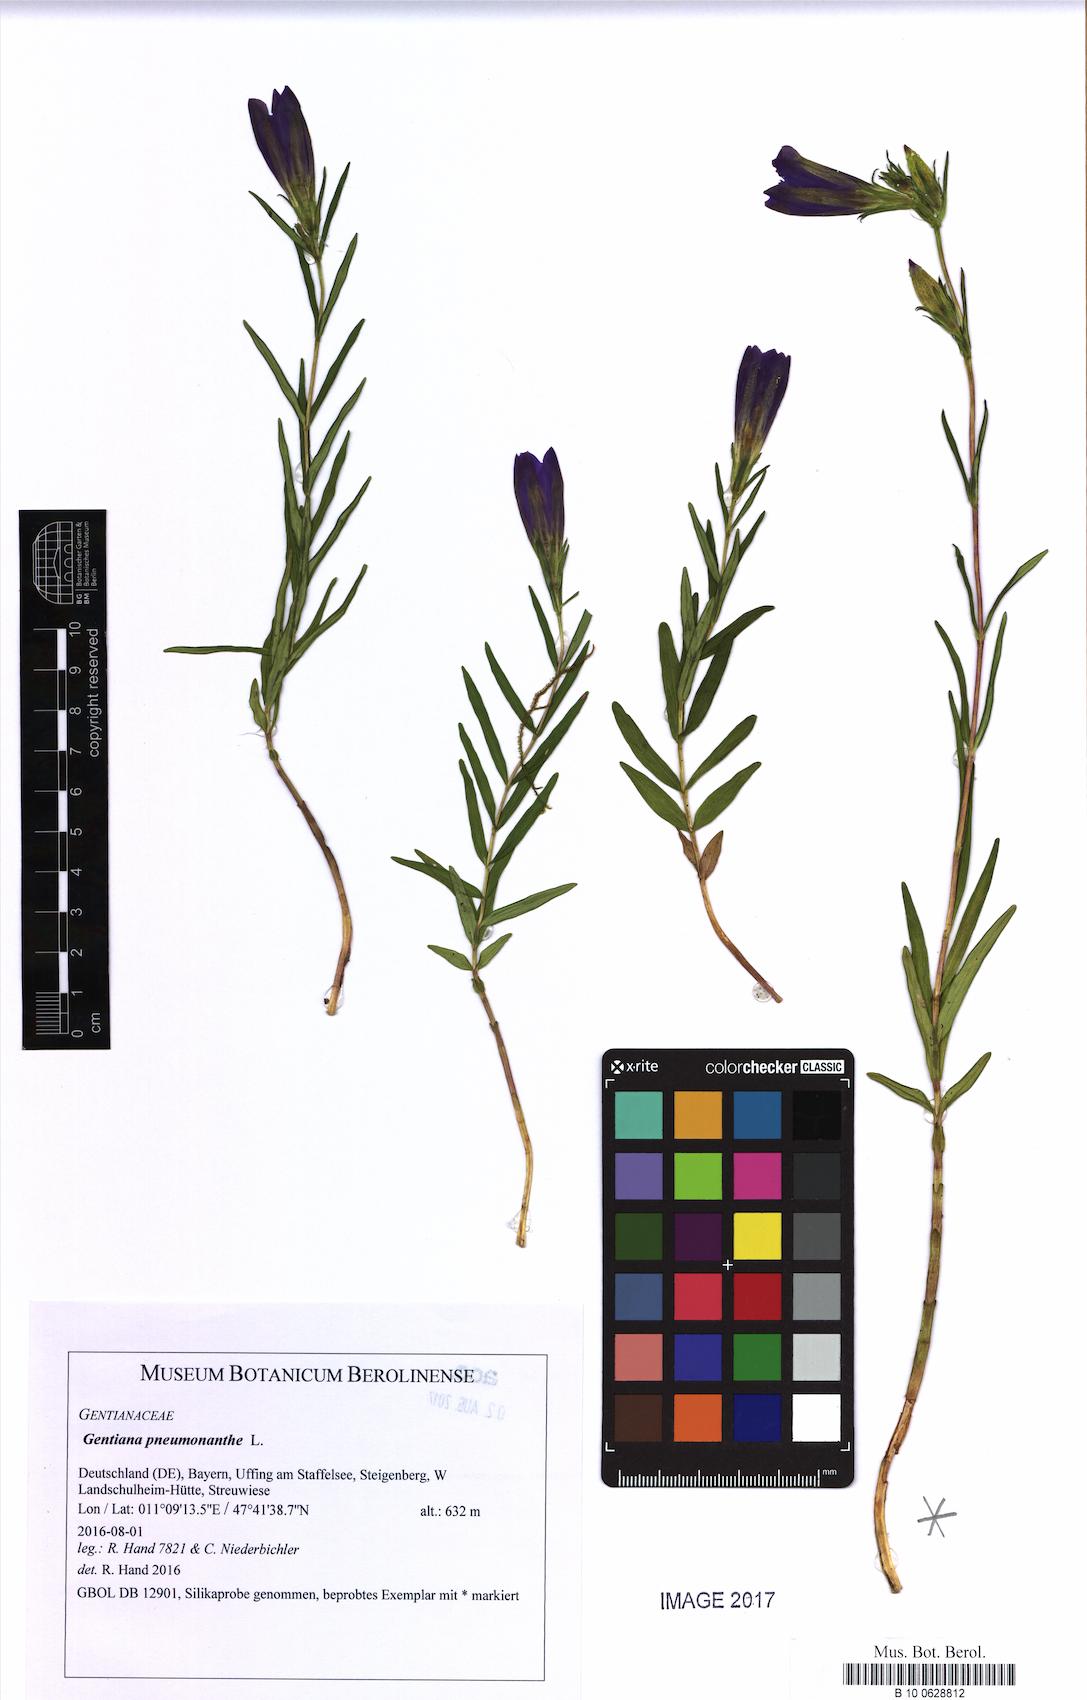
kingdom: Plantae
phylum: Tracheophyta
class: Magnoliopsida
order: Gentianales
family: Gentianaceae
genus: Gentiana
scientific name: Gentiana pneumonanthe
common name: Marsh gentian
